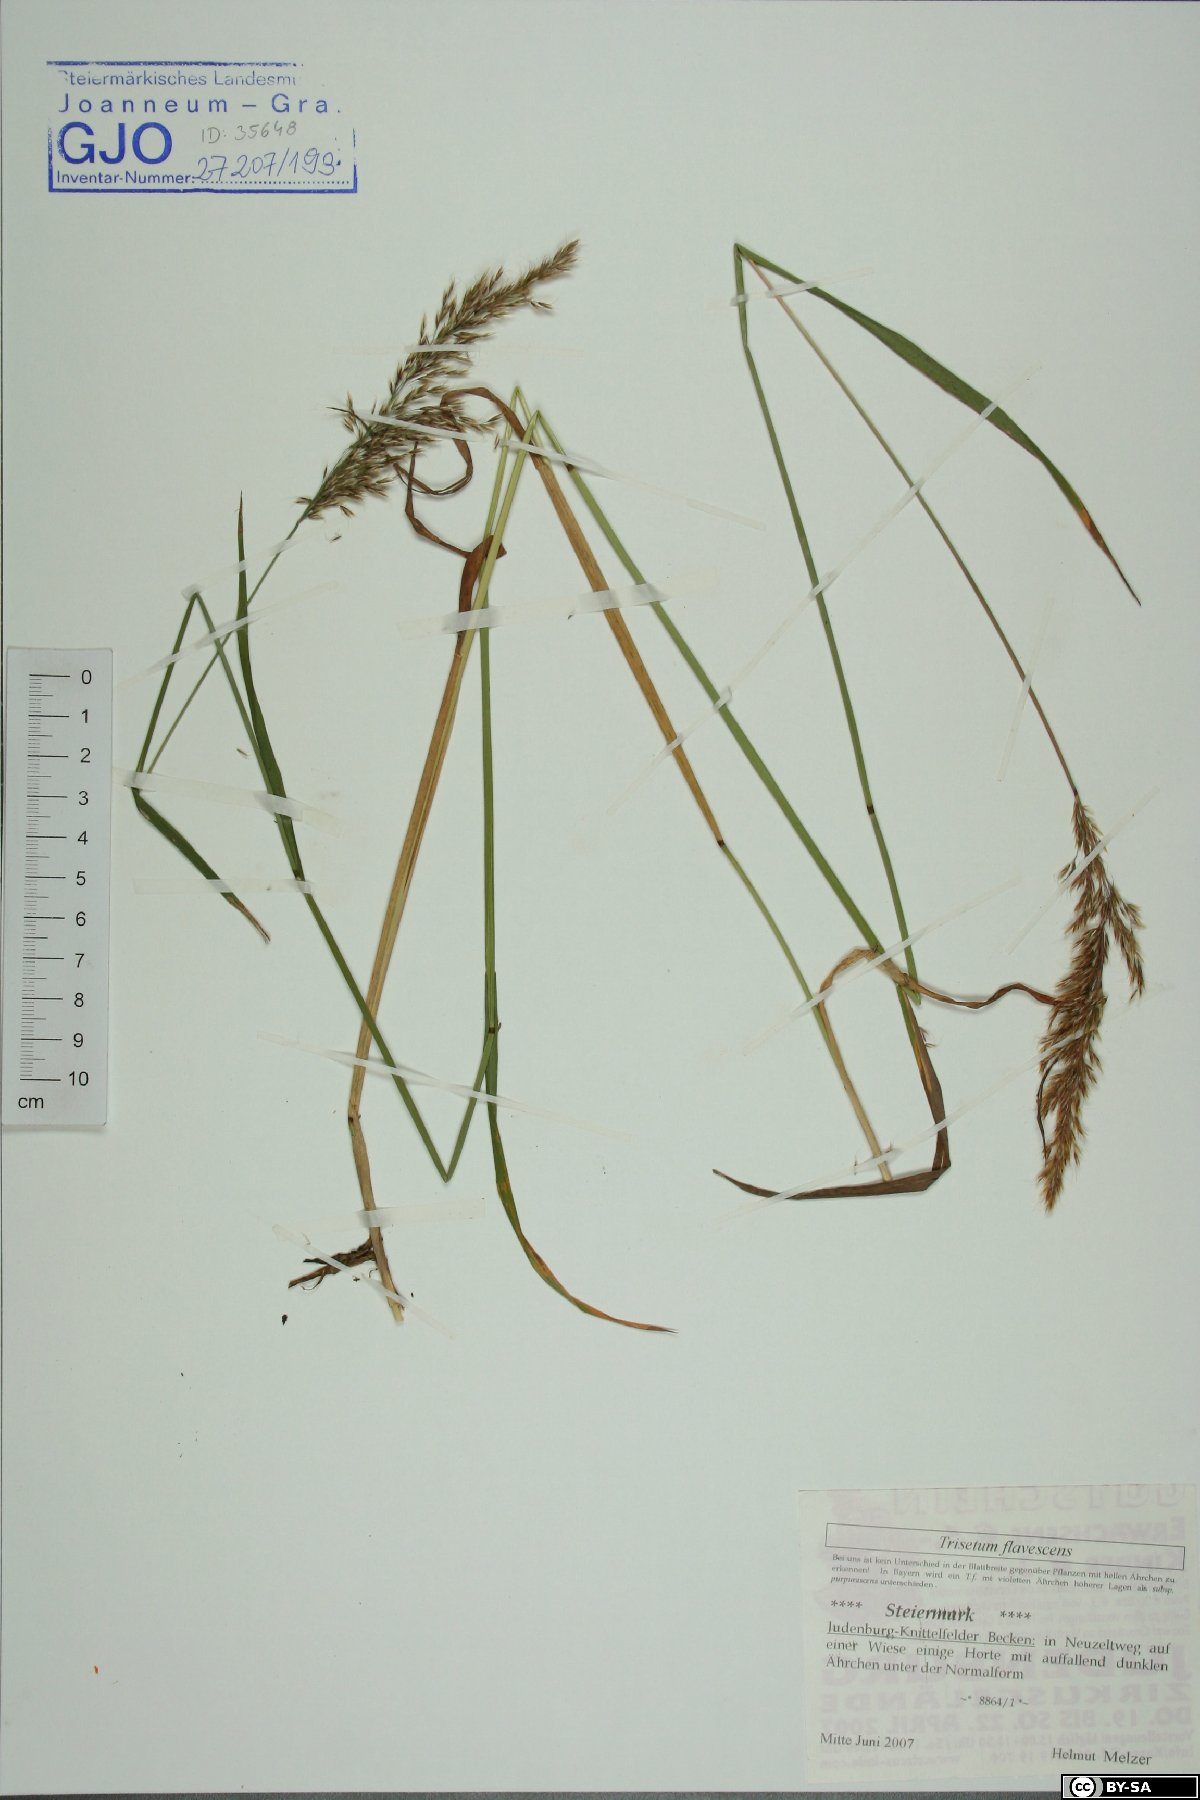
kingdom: Plantae
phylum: Tracheophyta
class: Liliopsida
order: Poales
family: Poaceae
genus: Trisetum
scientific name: Trisetum flavescens
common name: Yellow oat-grass
